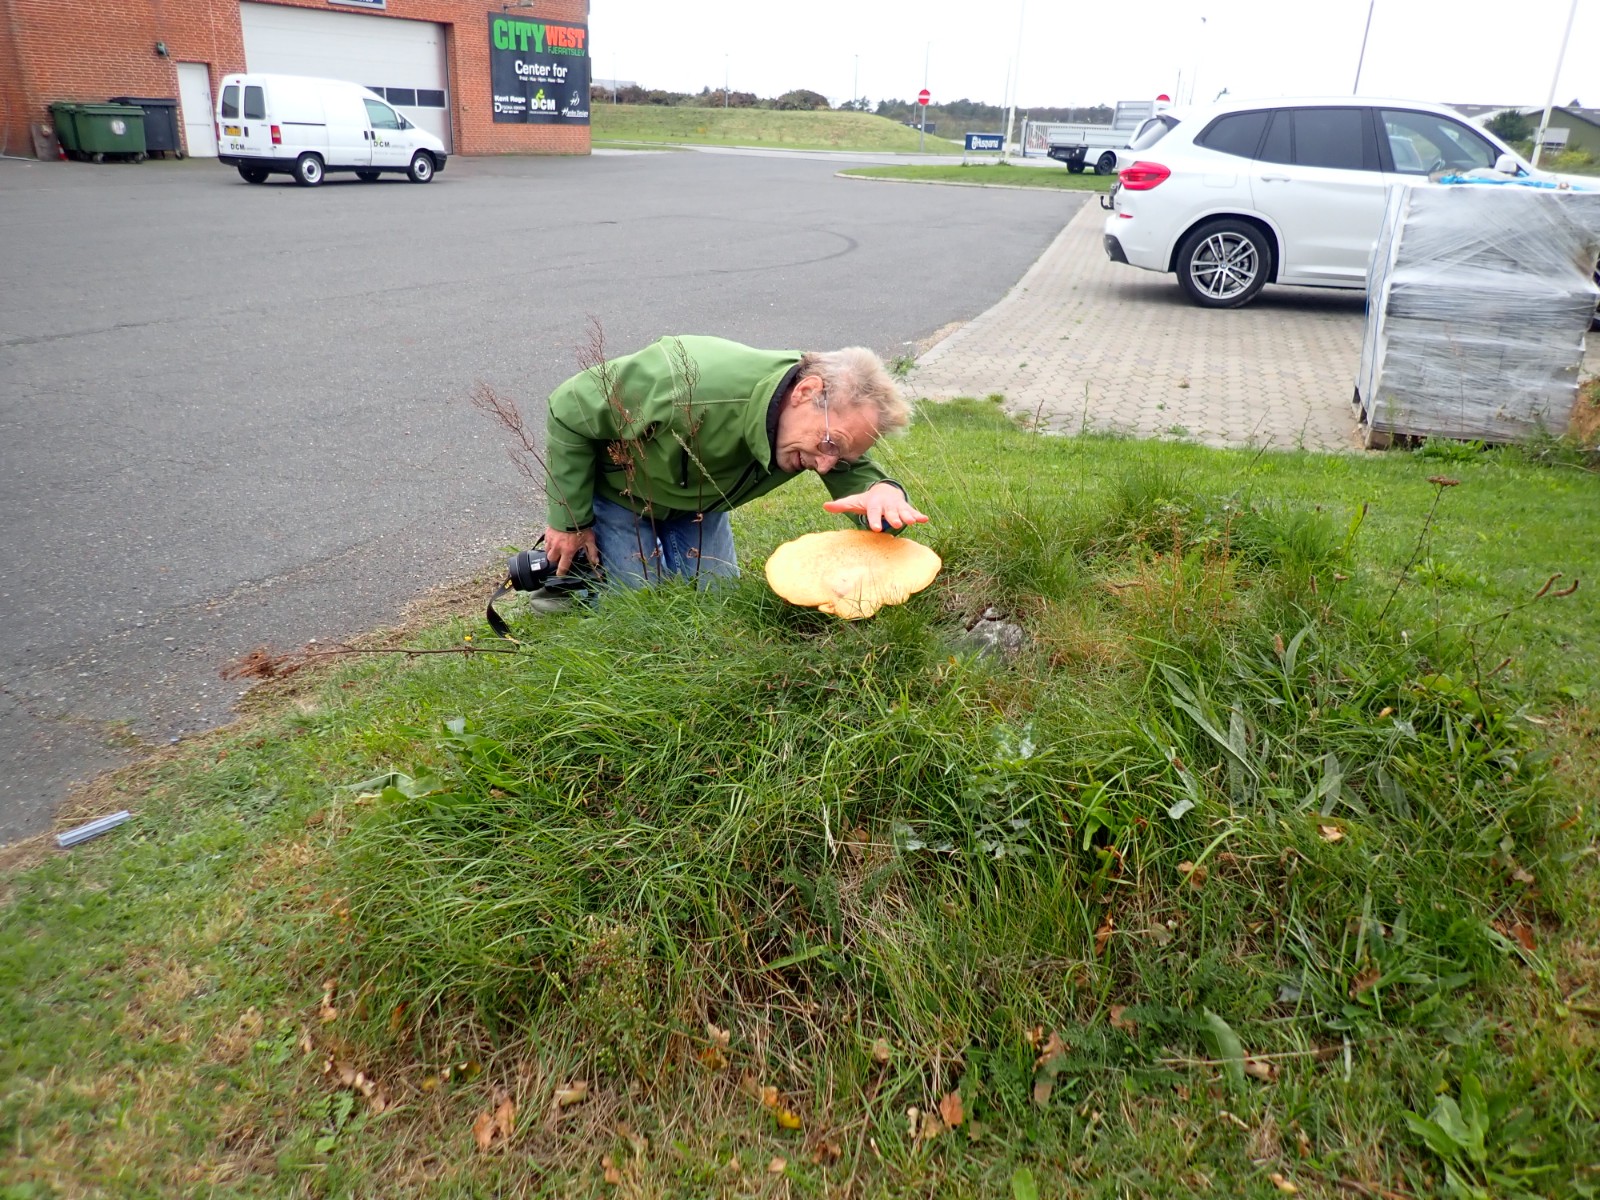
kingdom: Fungi
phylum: Basidiomycota
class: Agaricomycetes
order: Polyporales
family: Polyporaceae
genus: Cerioporus
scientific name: Cerioporus squamosus
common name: skællet stilkporesvamp
